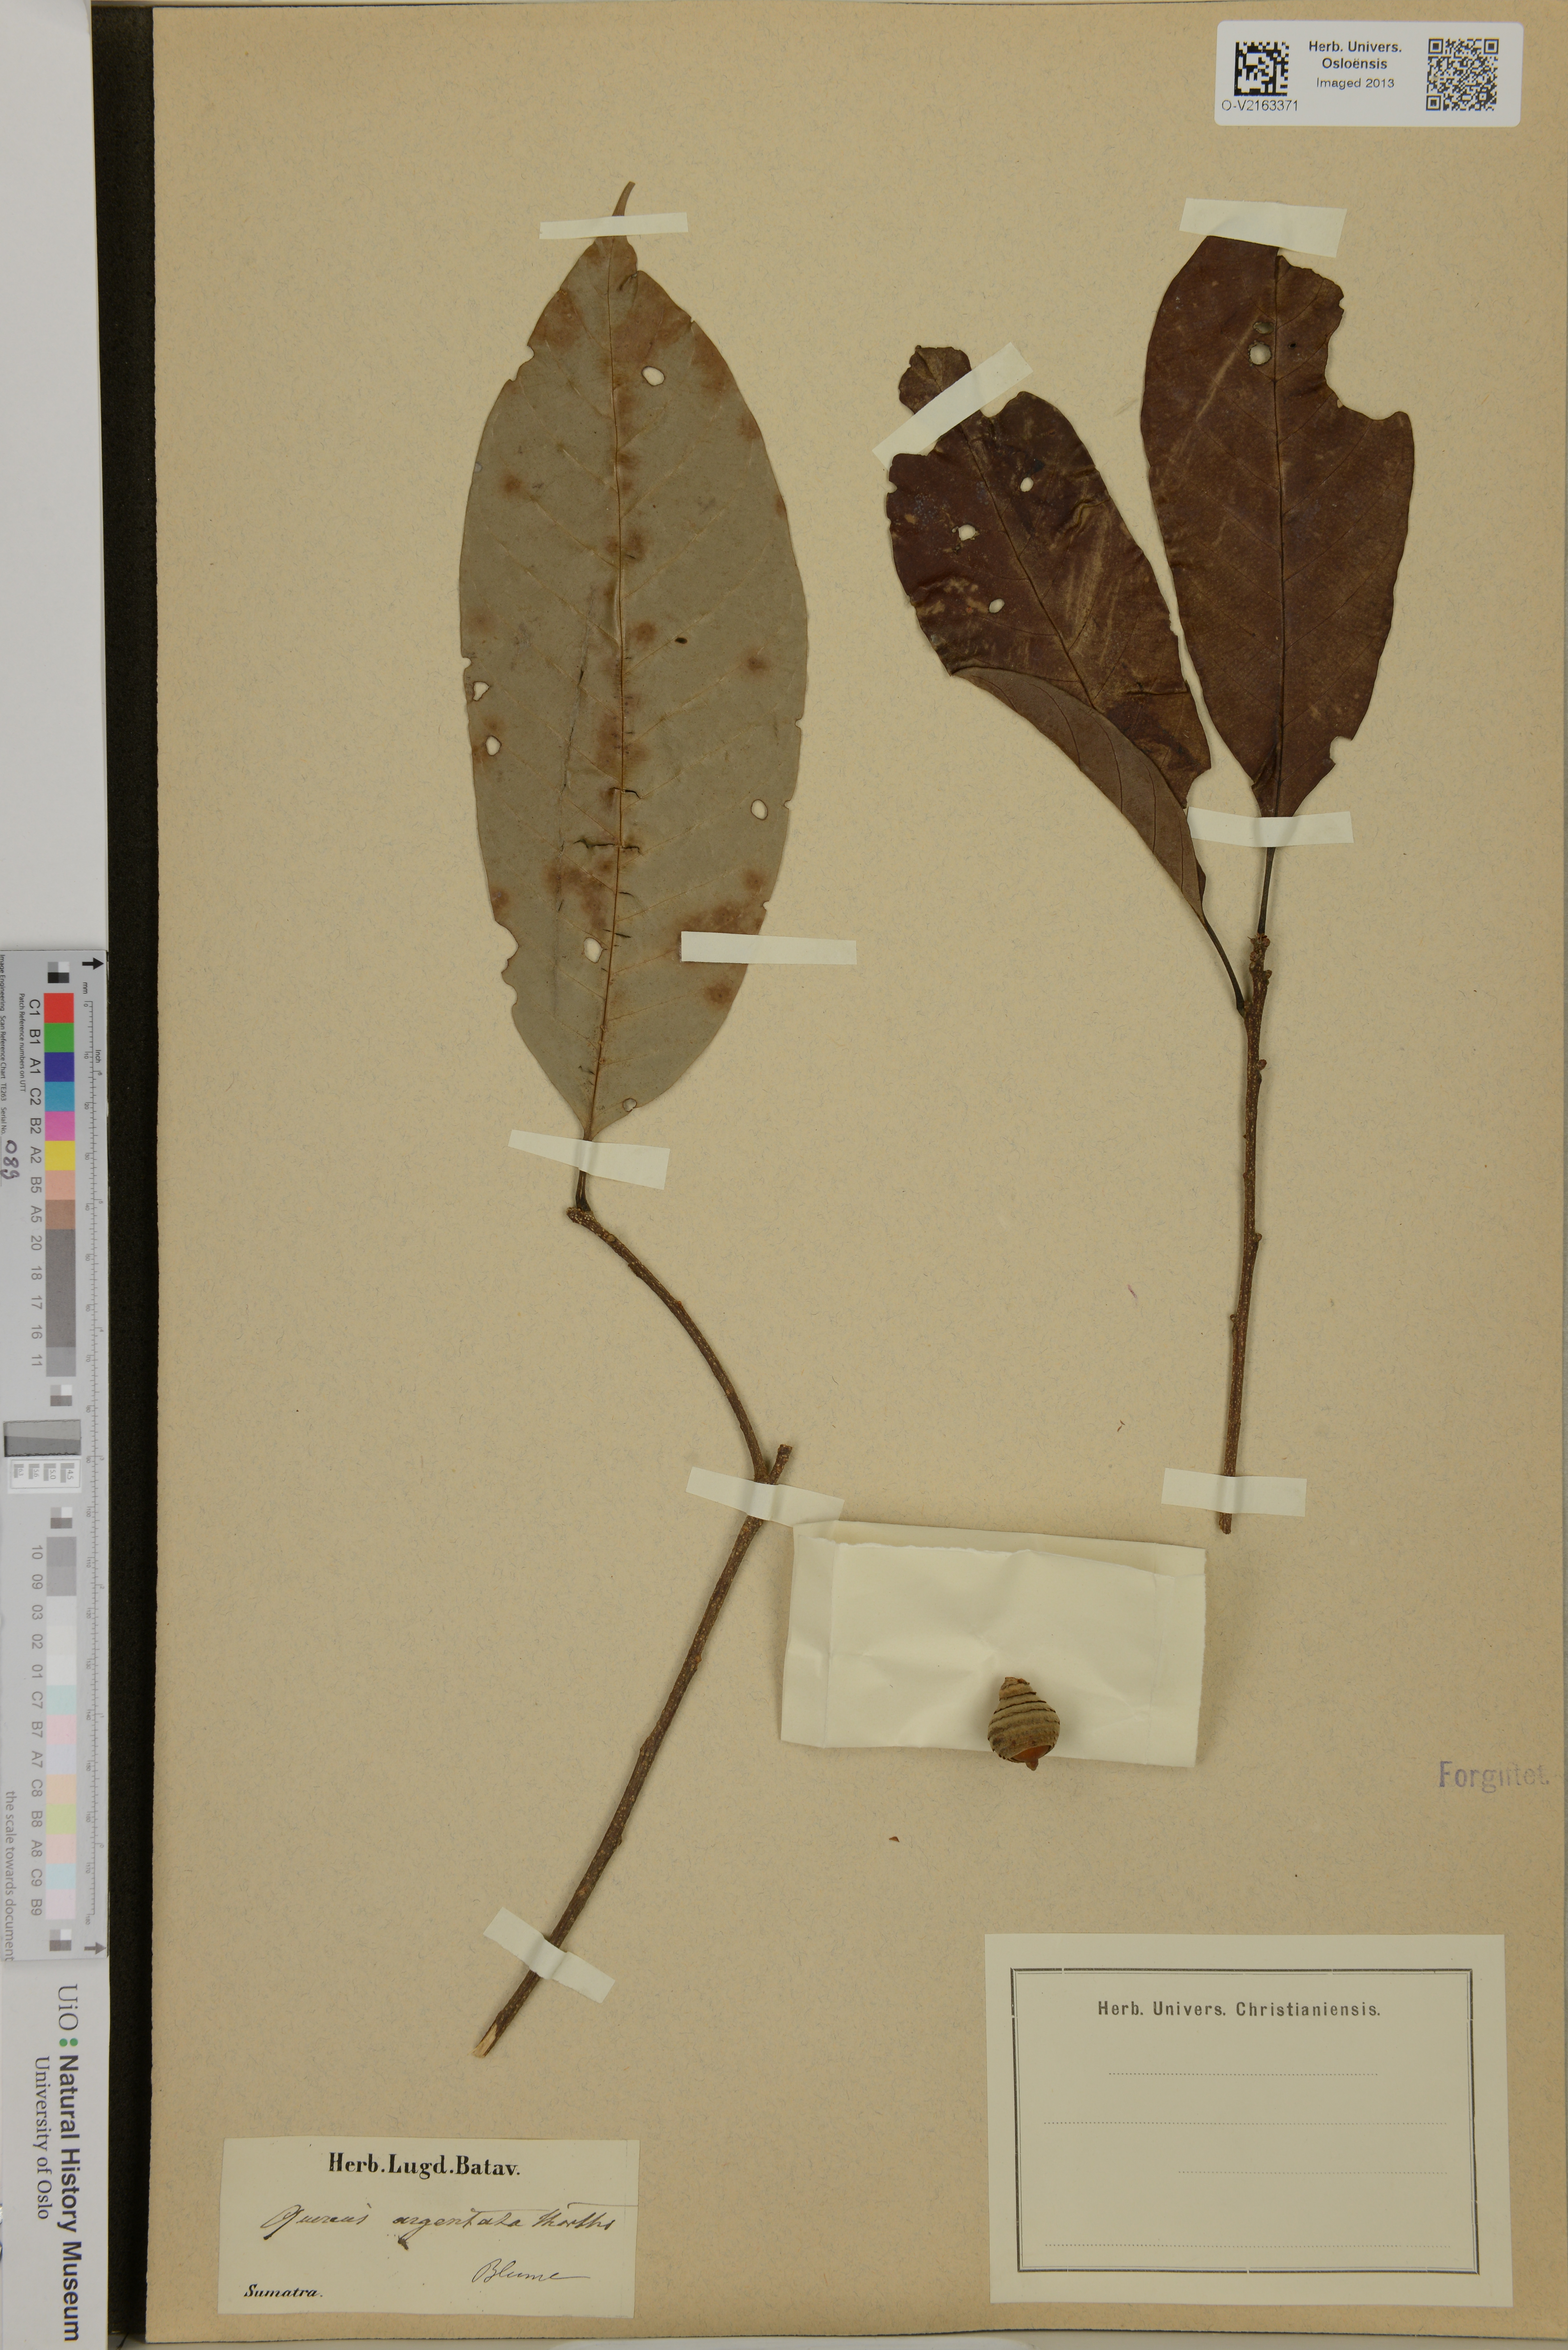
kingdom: Plantae
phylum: Tracheophyta
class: Magnoliopsida
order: Fagales
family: Fagaceae
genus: Quercus
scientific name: Quercus argentata
